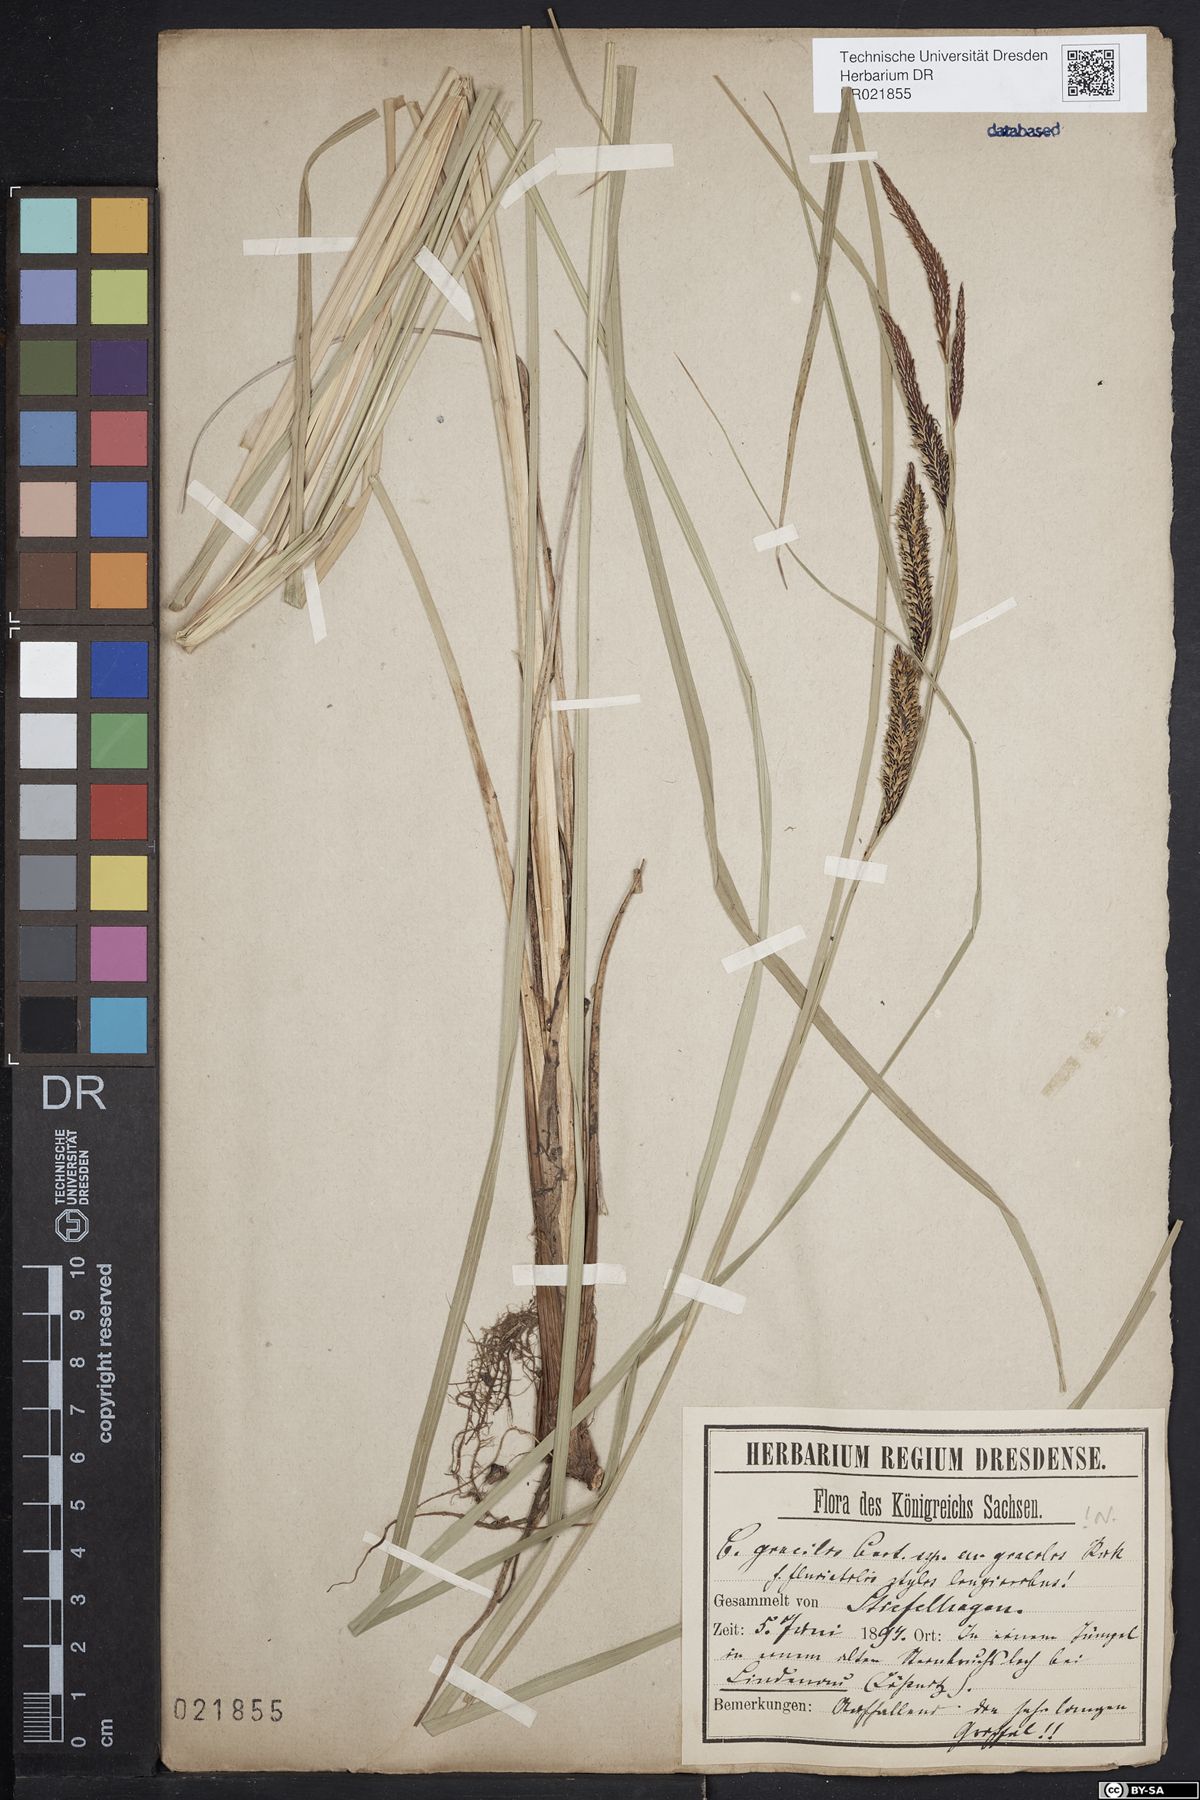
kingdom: Plantae
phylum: Tracheophyta
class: Liliopsida
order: Poales
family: Cyperaceae
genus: Carex
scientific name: Carex acuta
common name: Slender tufted-sedge
